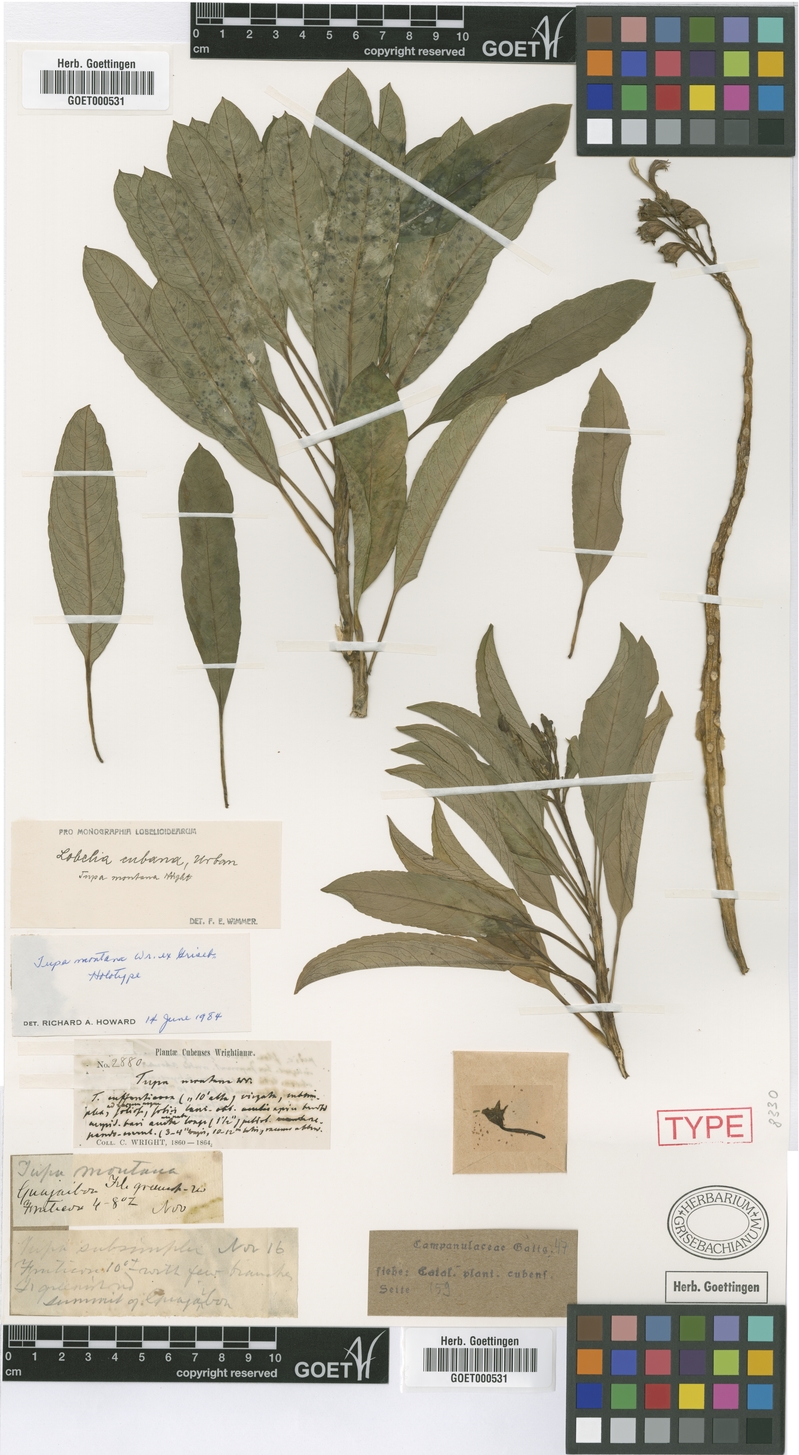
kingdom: Plantae
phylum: Tracheophyta
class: Magnoliopsida
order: Asterales
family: Campanulaceae
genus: Lobelia
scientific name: Lobelia cubana
